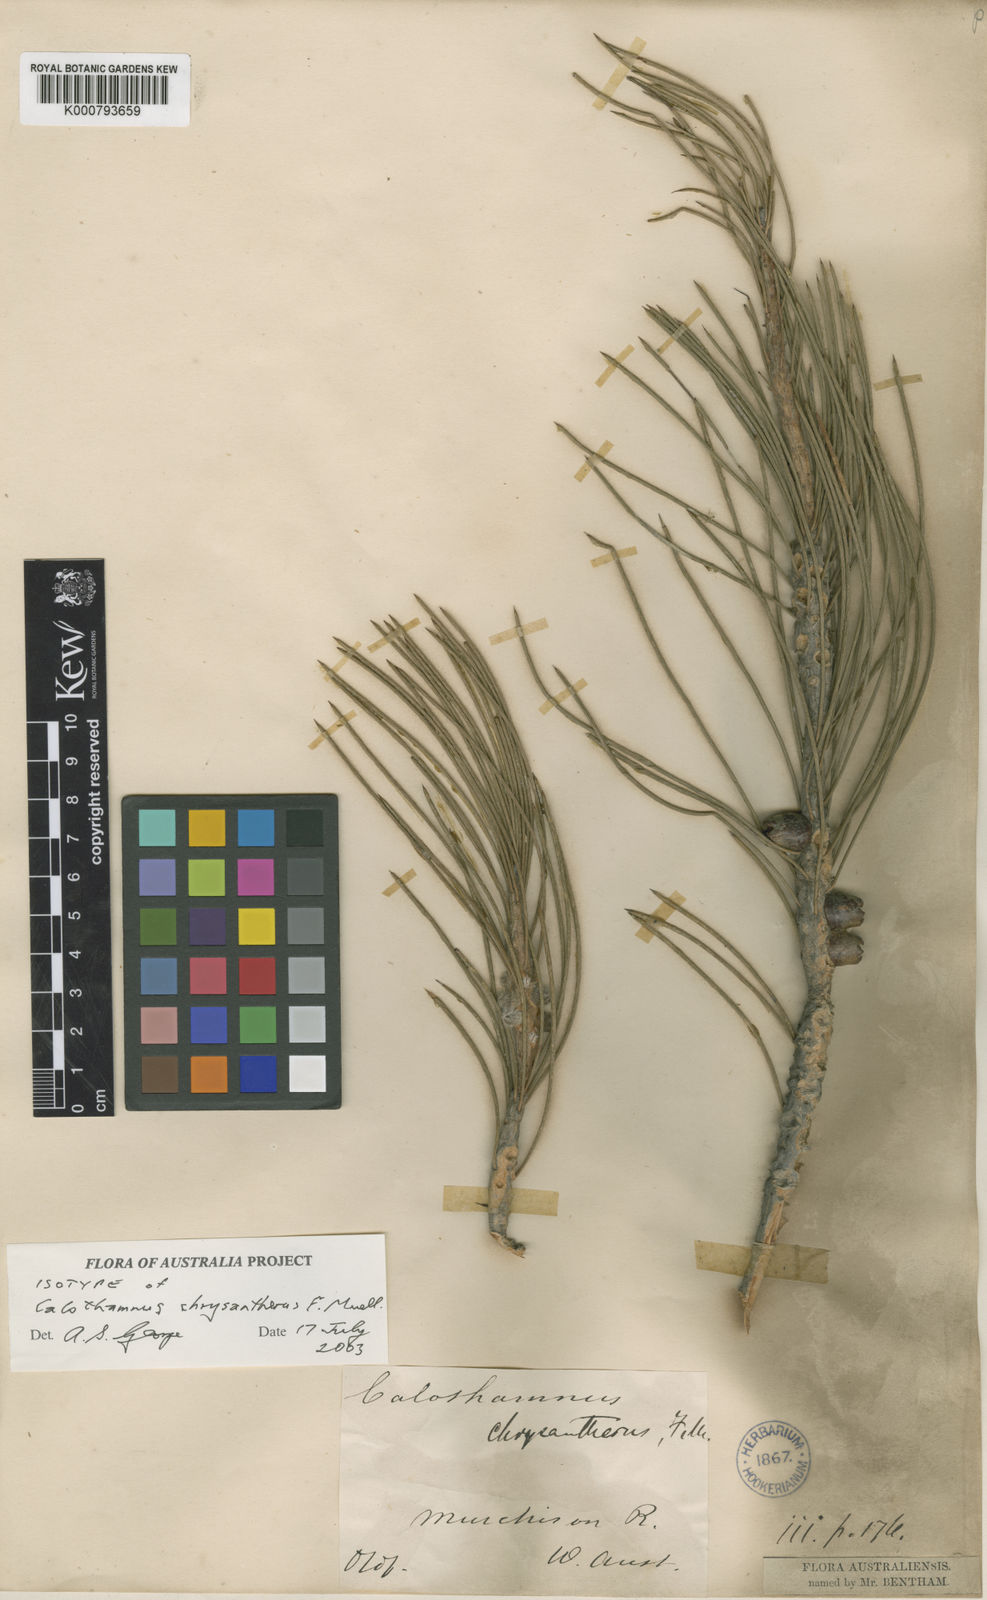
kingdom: Plantae
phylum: Tracheophyta
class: Magnoliopsida
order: Myrtales
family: Myrtaceae
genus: Melaleuca
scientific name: Melaleuca chrysantherea
